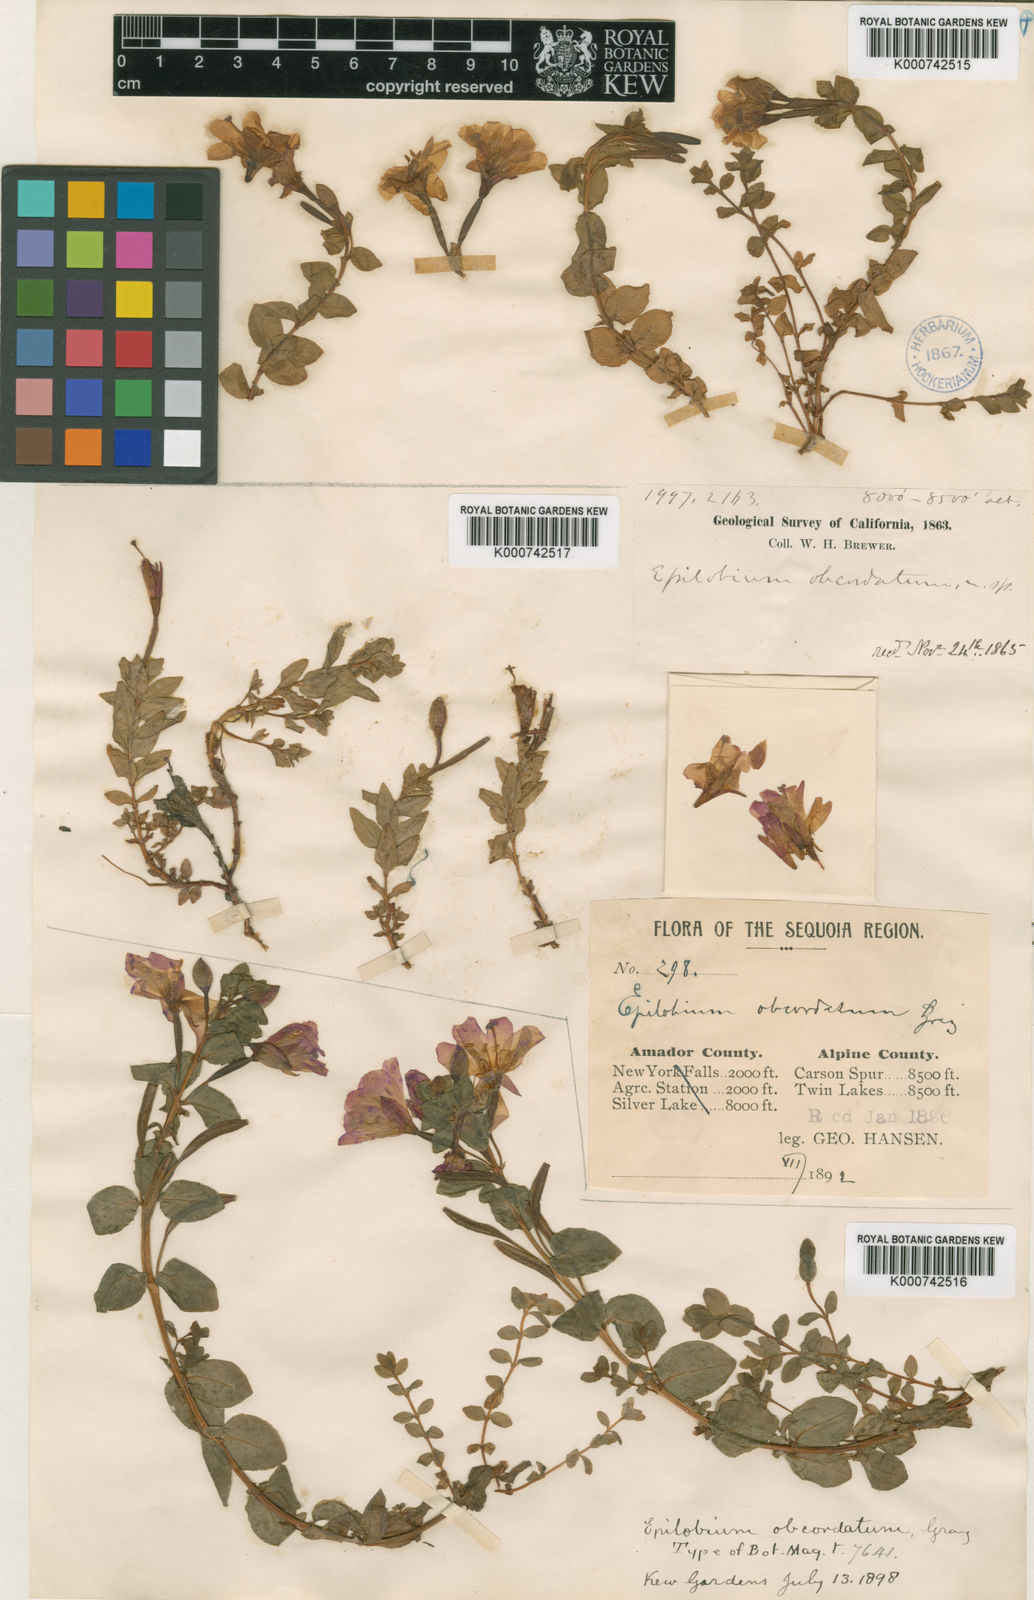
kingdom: Plantae
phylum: Tracheophyta
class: Magnoliopsida
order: Myrtales
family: Onagraceae
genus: Epilobium
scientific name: Epilobium obcordatum
